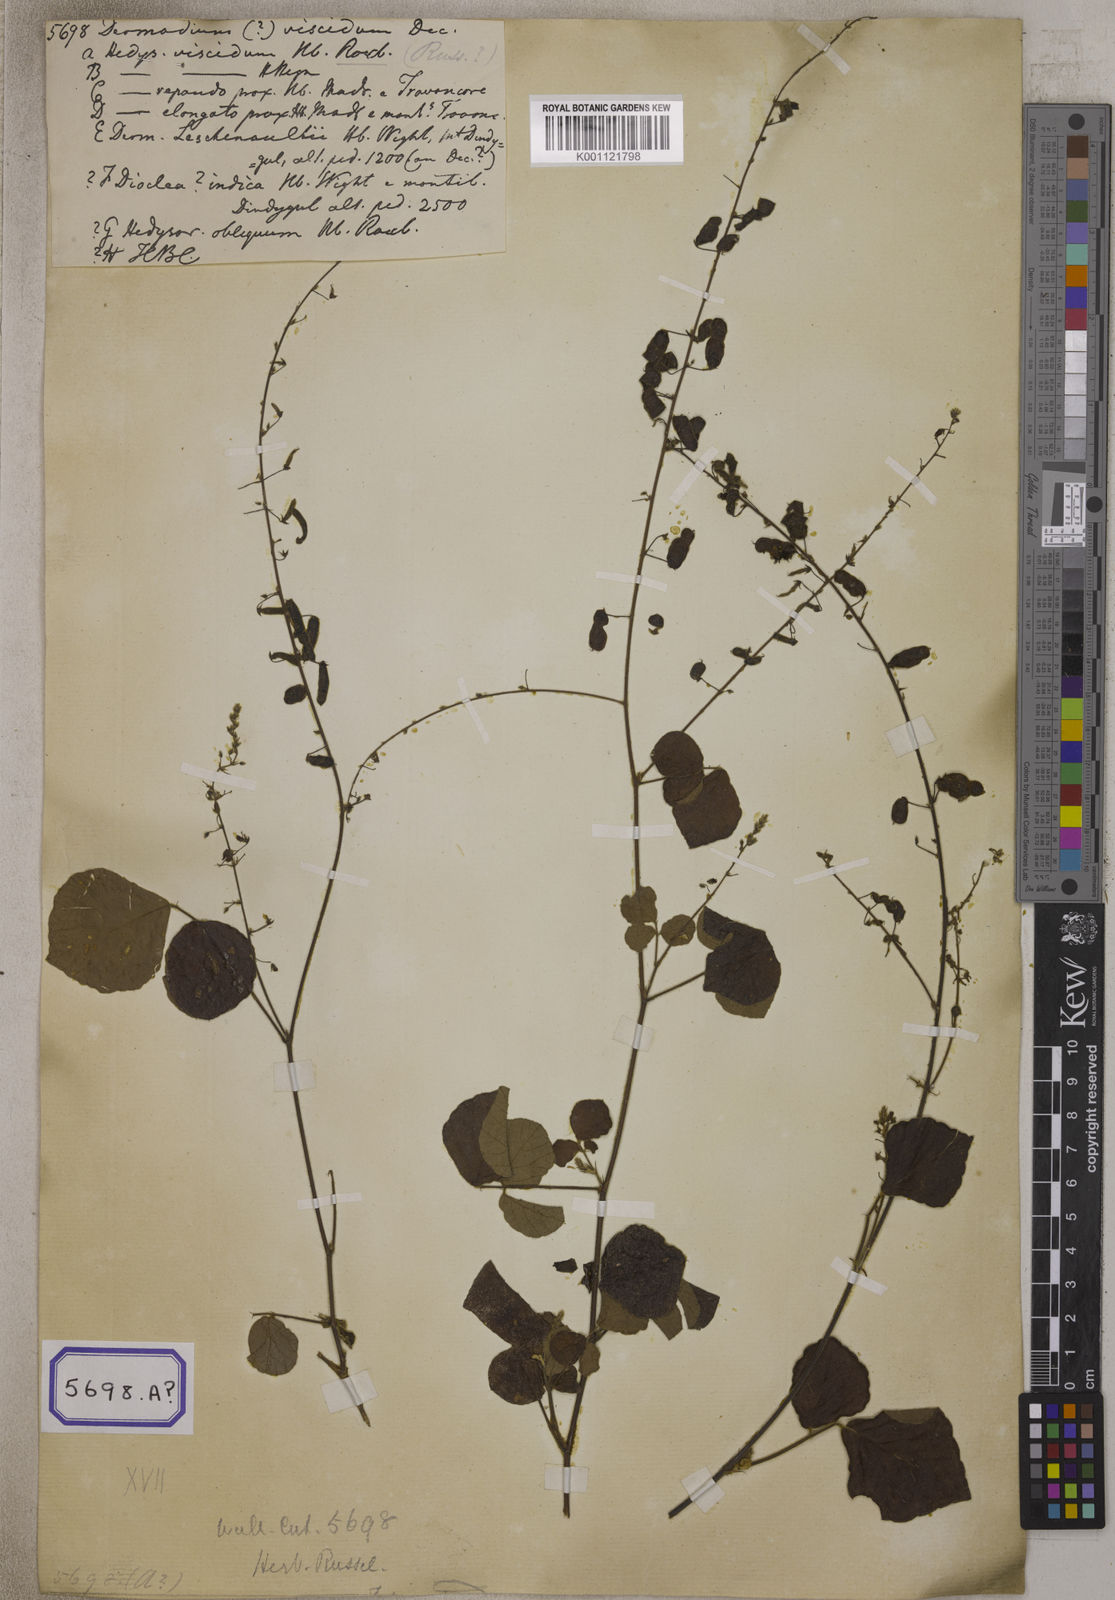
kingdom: Plantae
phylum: Tracheophyta
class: Magnoliopsida
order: Fabales
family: Fabaceae
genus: Pseudarthria
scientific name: Pseudarthria viscida
